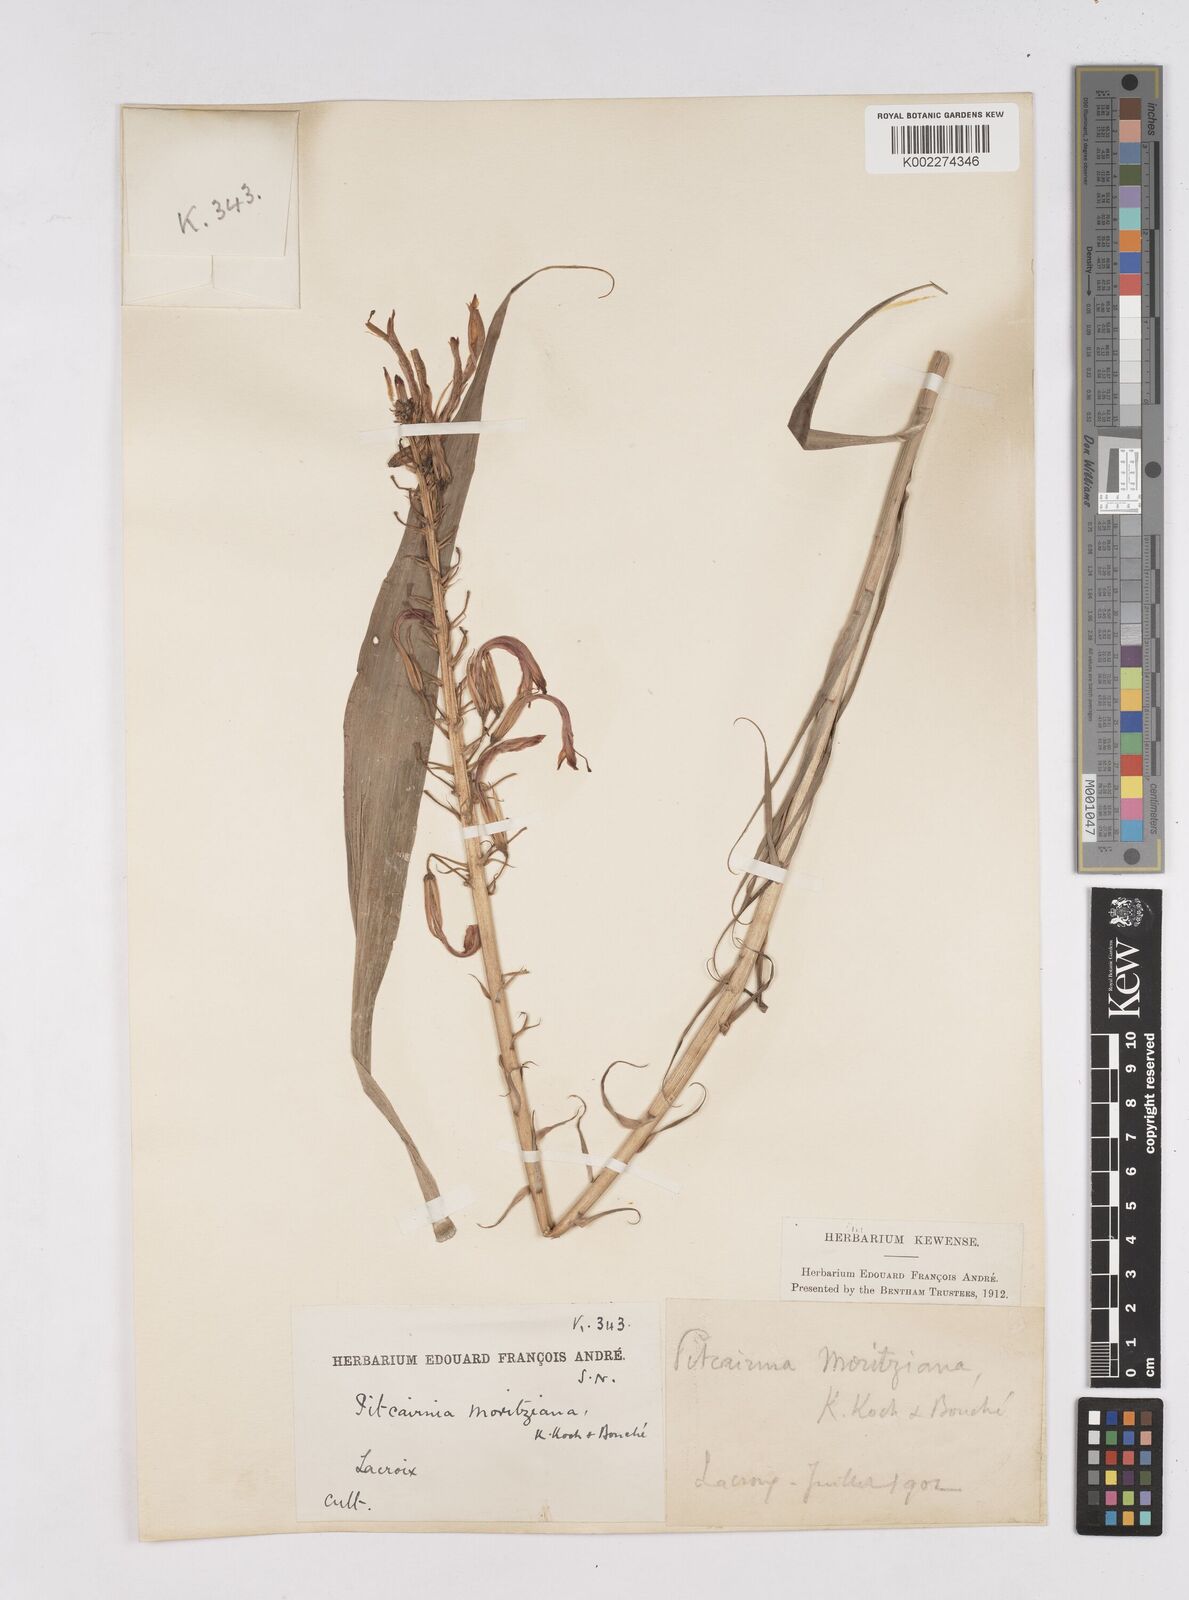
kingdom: Plantae
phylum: Tracheophyta
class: Liliopsida
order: Poales
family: Bromeliaceae
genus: Pitcairnia
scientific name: Pitcairnia moritziana
